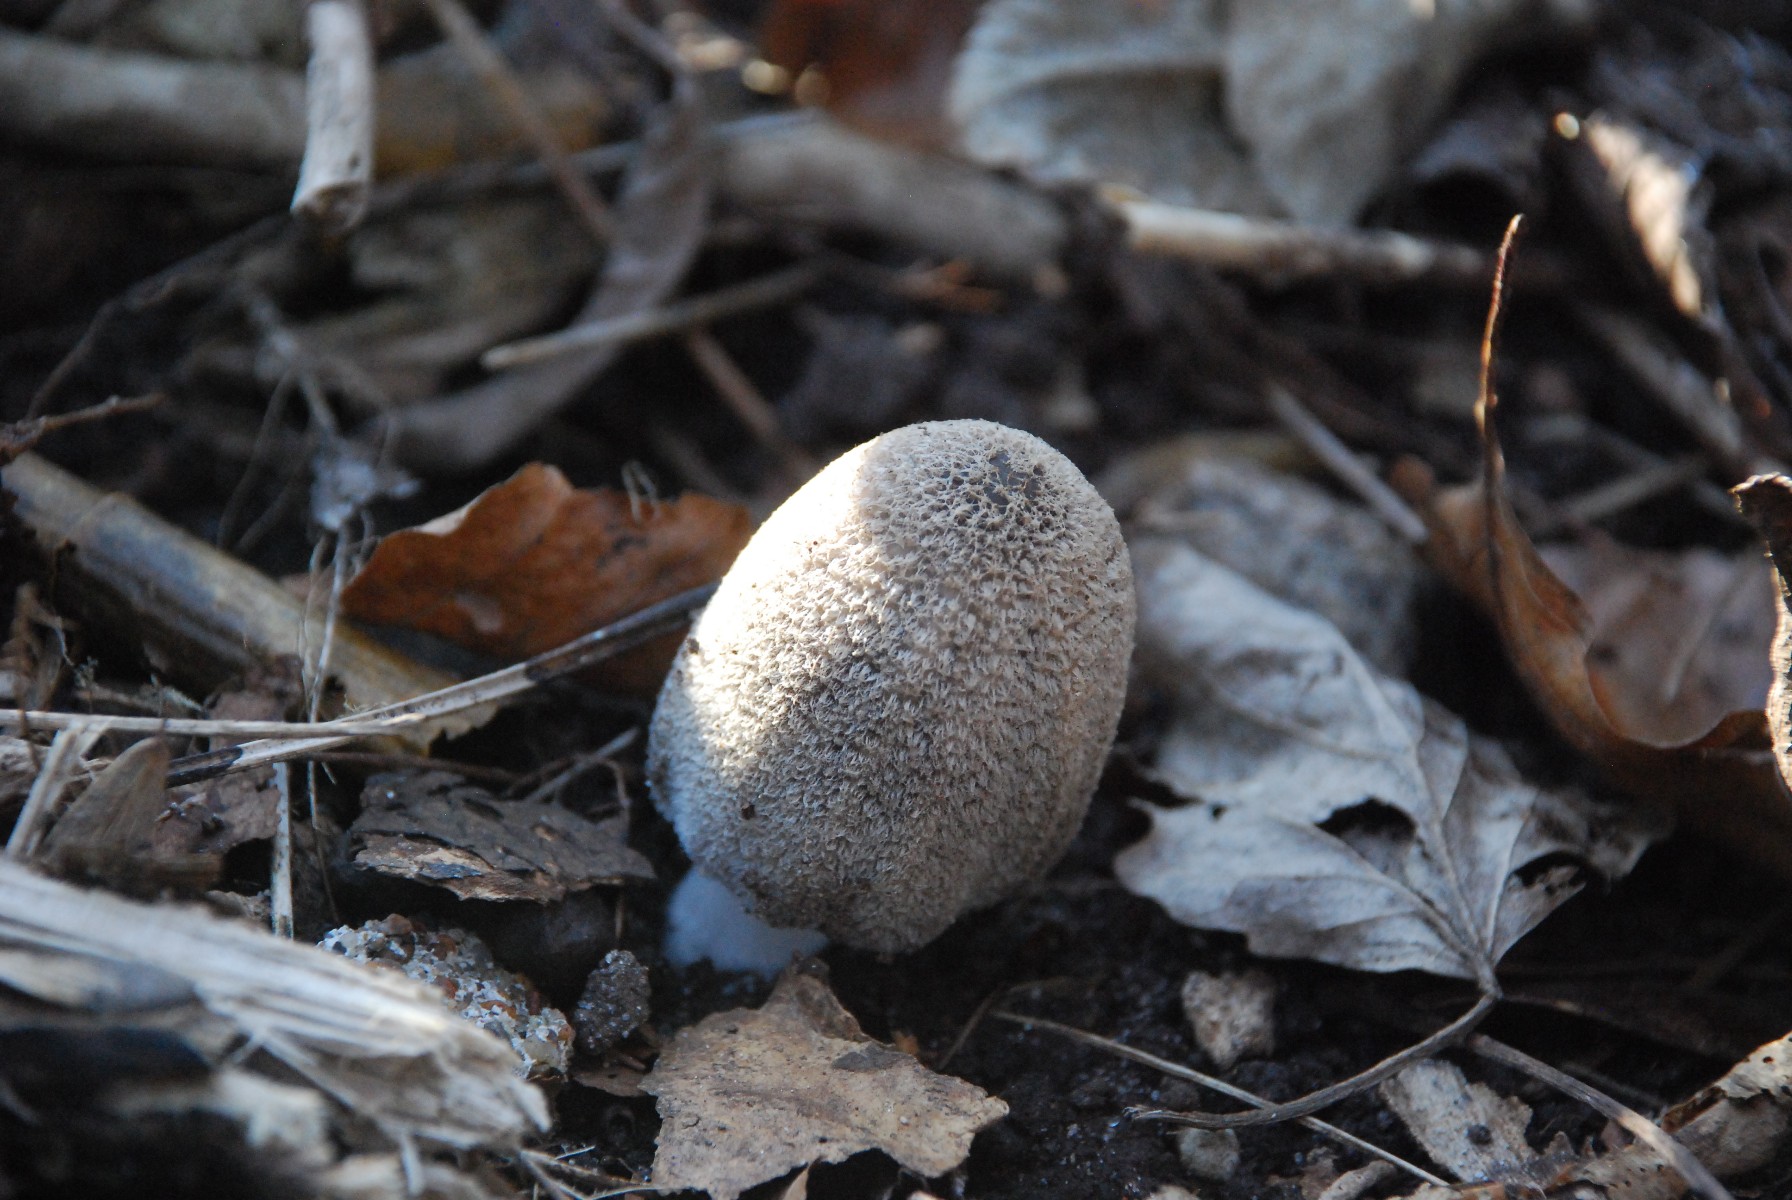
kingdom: Fungi
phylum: Basidiomycota
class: Agaricomycetes
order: Agaricales
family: Psathyrellaceae
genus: Coprinopsis
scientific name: Coprinopsis
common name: blækhat
